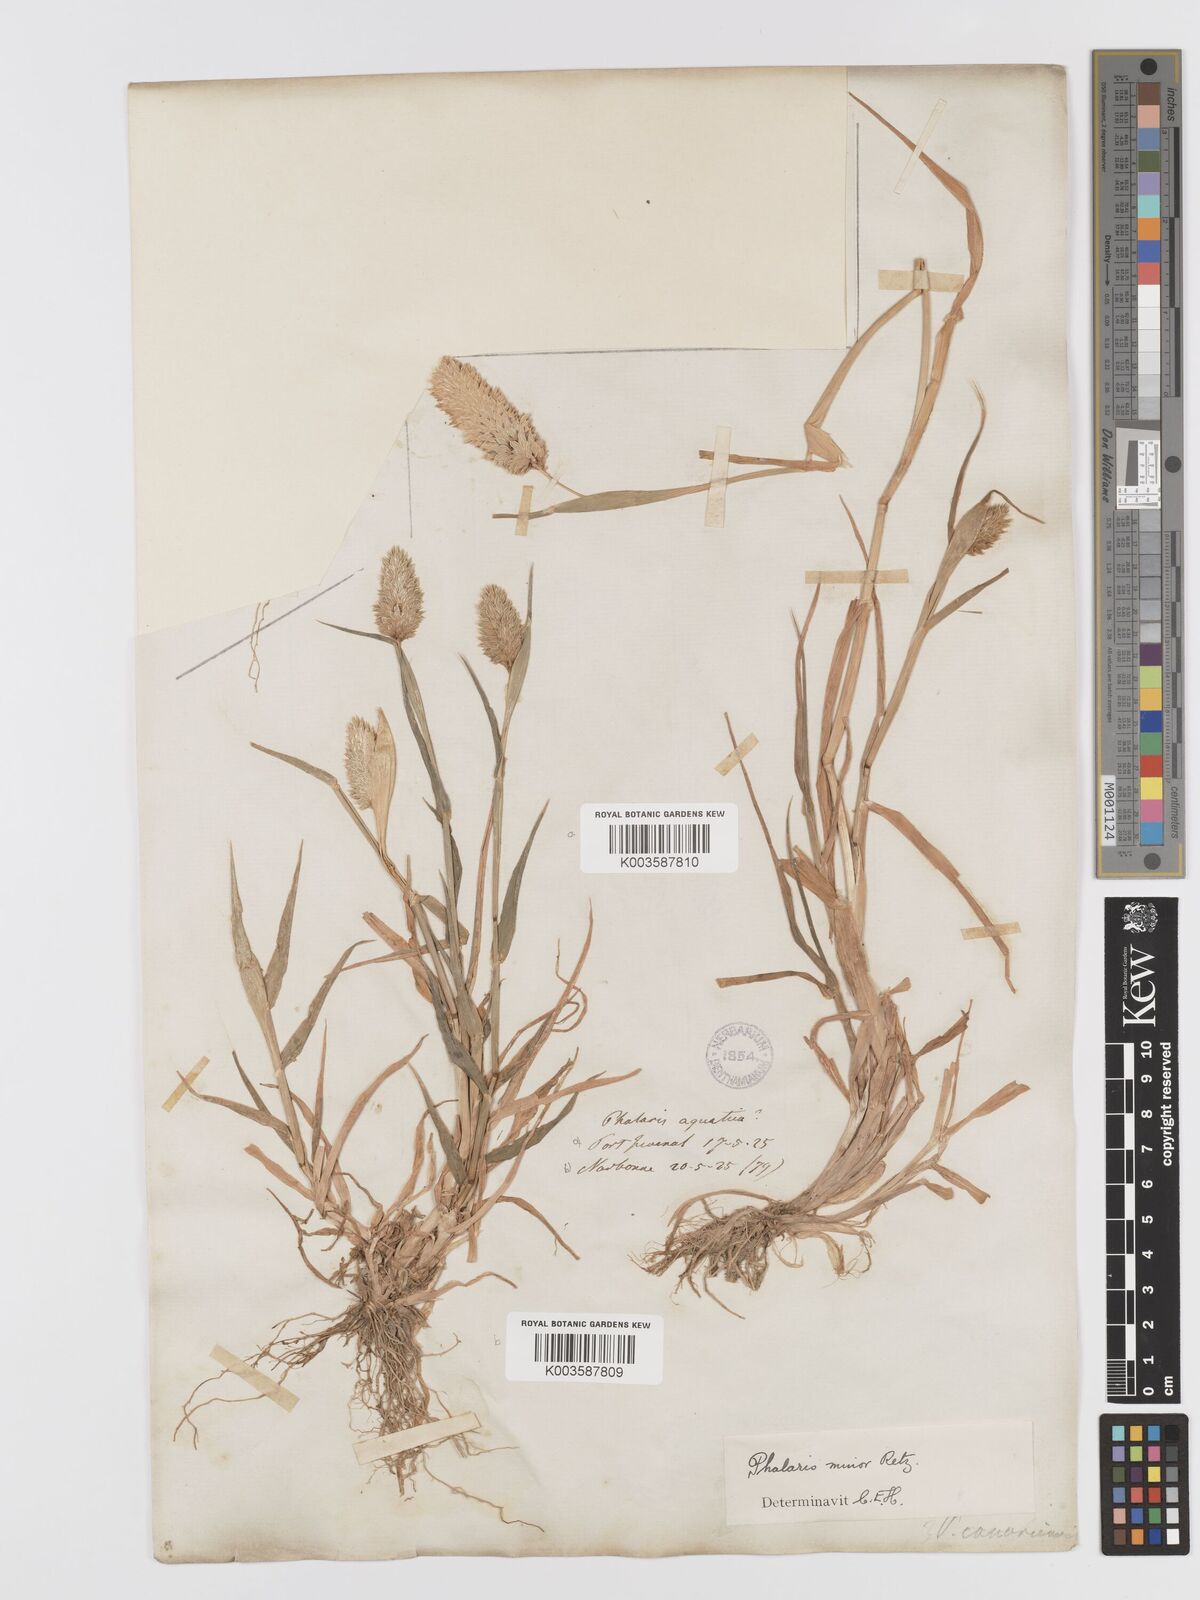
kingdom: Plantae
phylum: Tracheophyta
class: Liliopsida
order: Poales
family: Poaceae
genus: Phalaris
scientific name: Phalaris minor
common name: Littleseed canarygrass
